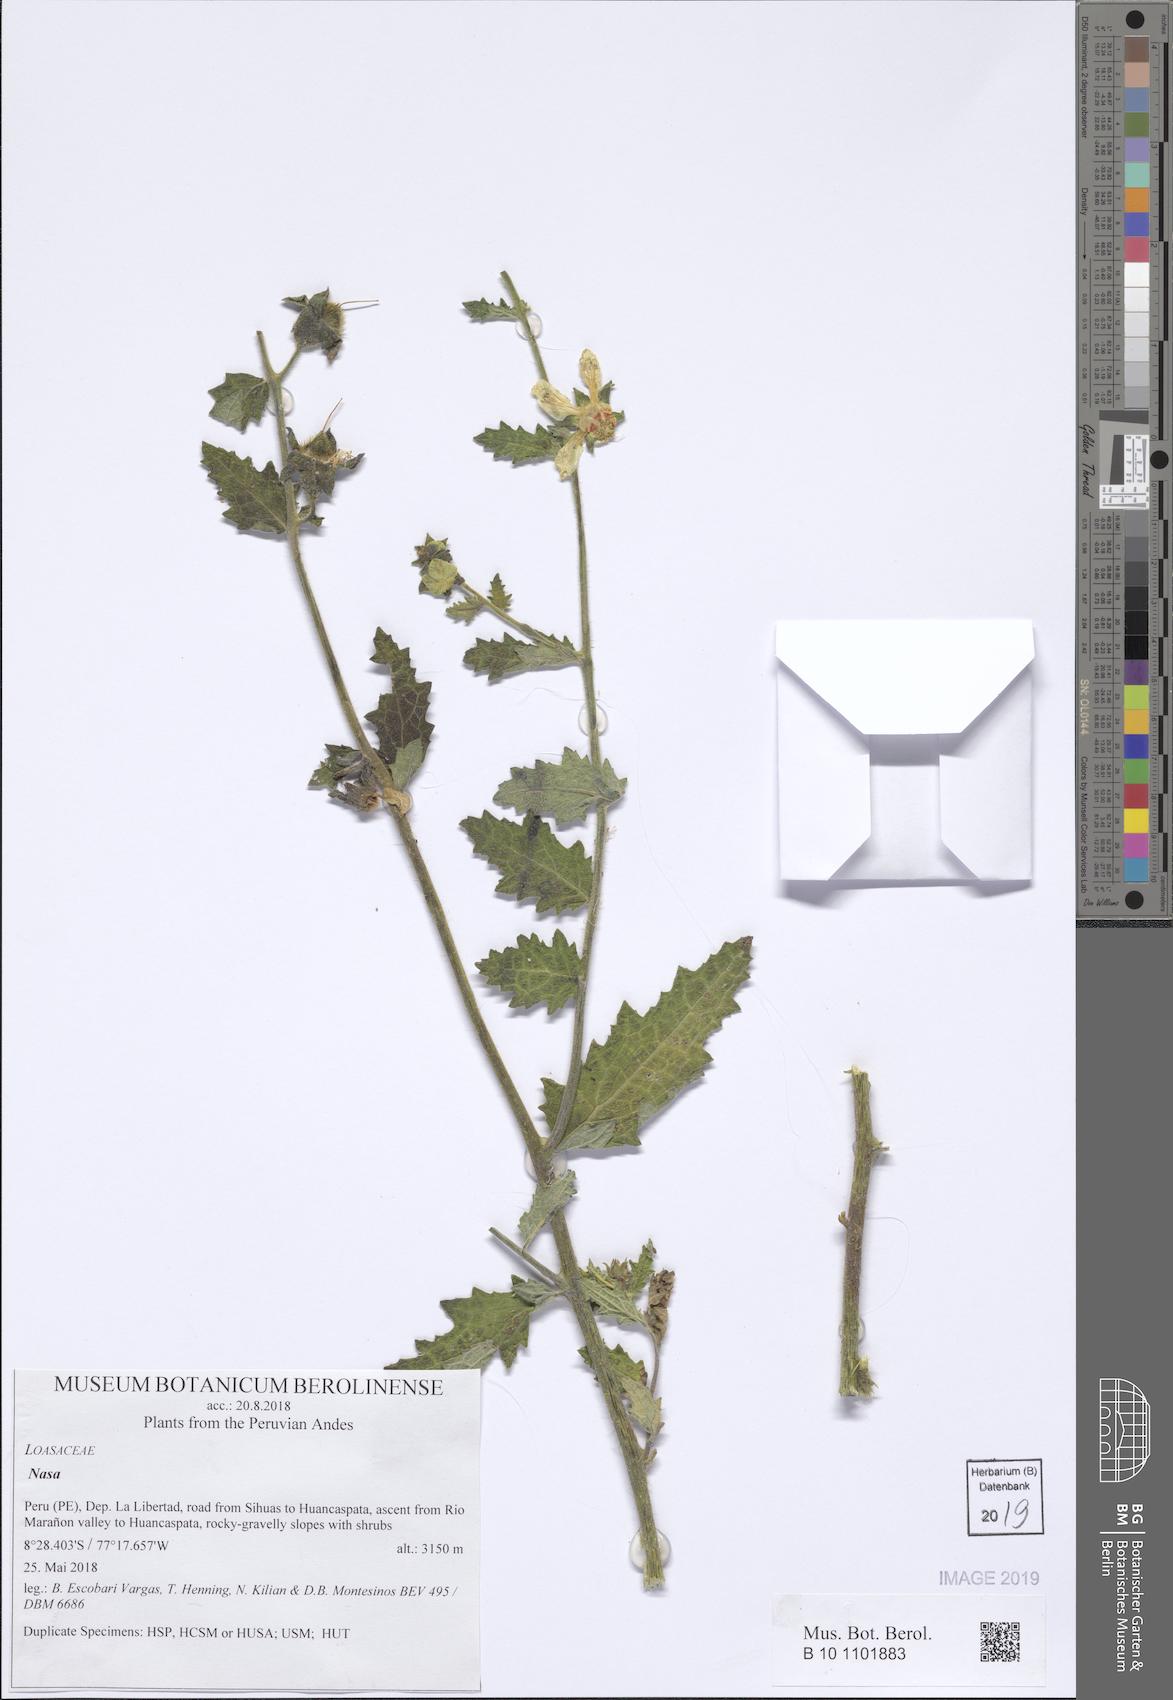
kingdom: Plantae
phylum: Tracheophyta
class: Magnoliopsida
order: Cornales
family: Loasaceae
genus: Nasa
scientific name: Nasa carunculata
